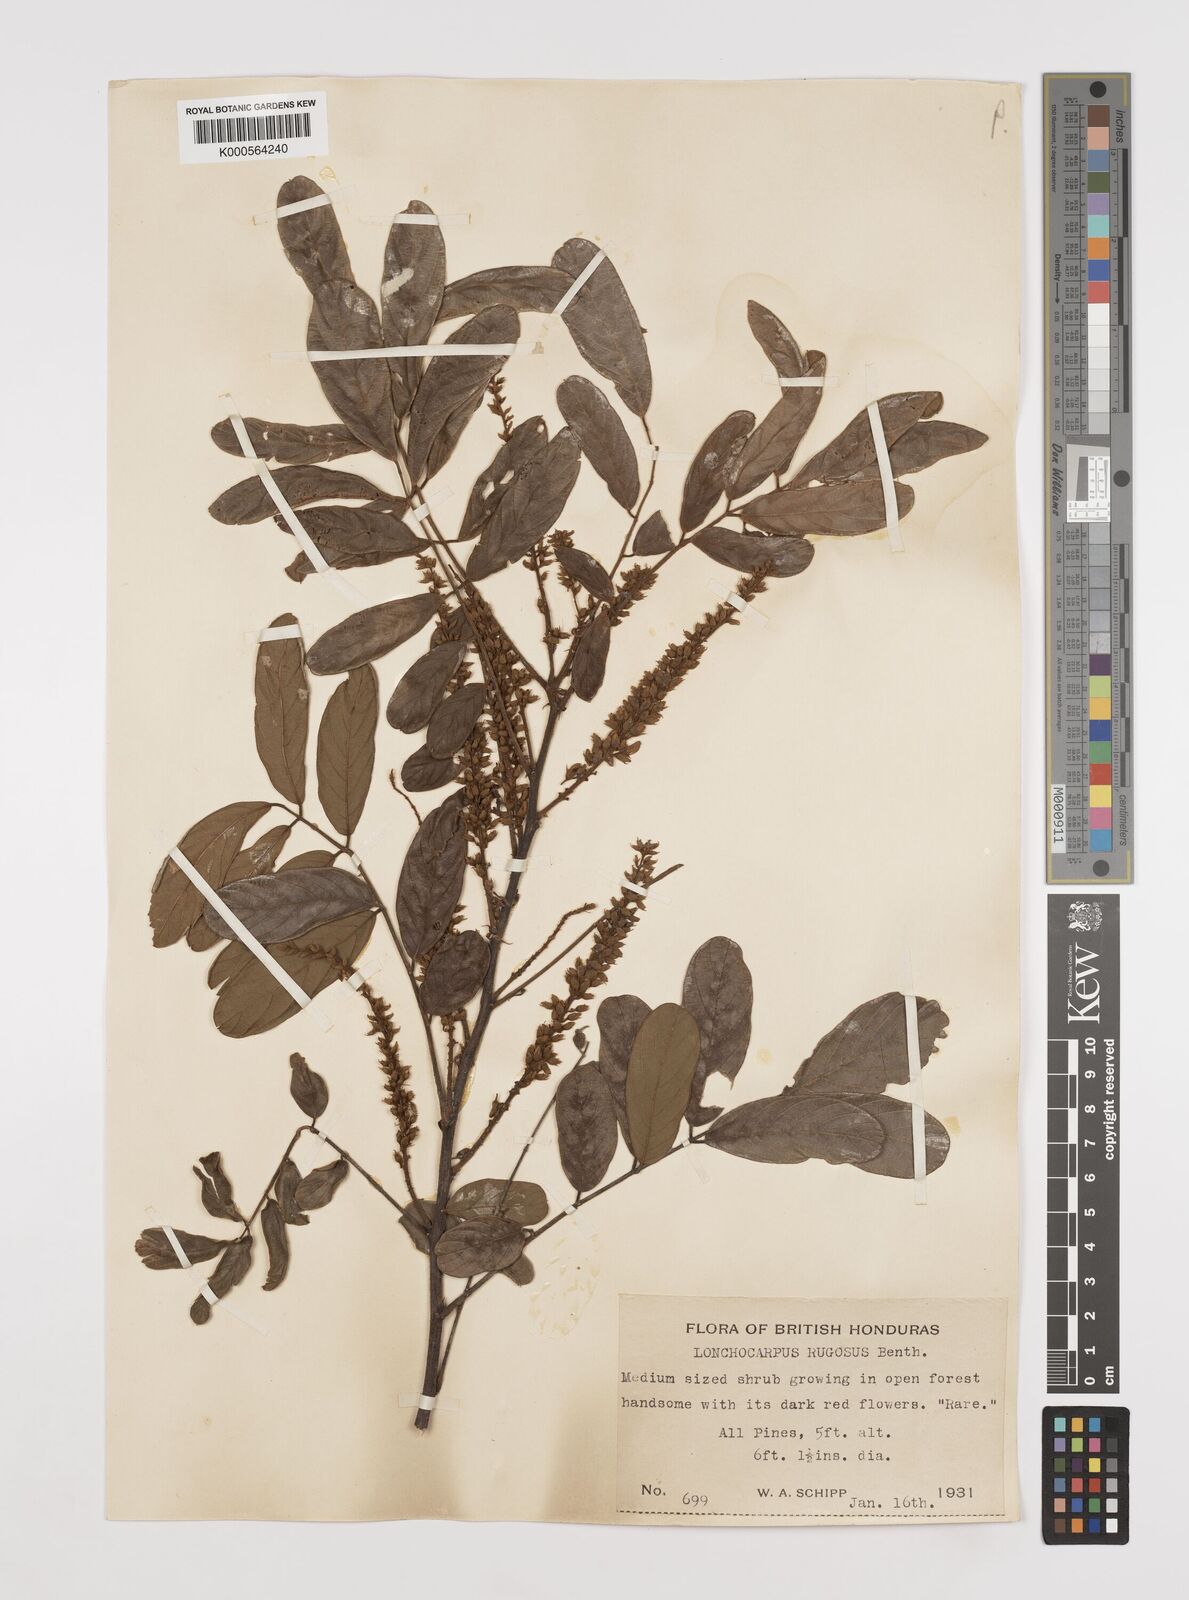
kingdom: Plantae
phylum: Tracheophyta
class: Magnoliopsida
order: Fabales
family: Fabaceae
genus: Lonchocarpus
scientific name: Lonchocarpus rugosus
